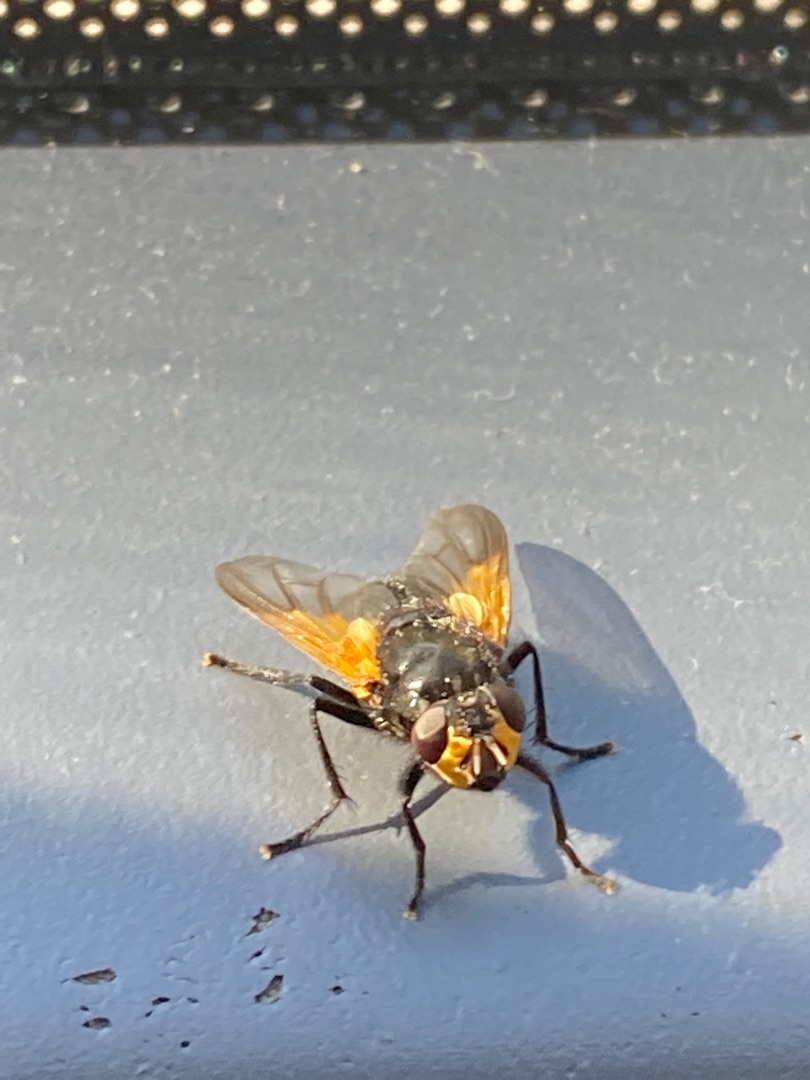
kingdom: Animalia
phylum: Arthropoda
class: Insecta
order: Diptera
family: Muscidae
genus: Mesembrina
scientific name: Mesembrina meridiana
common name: Gulvinget flue
